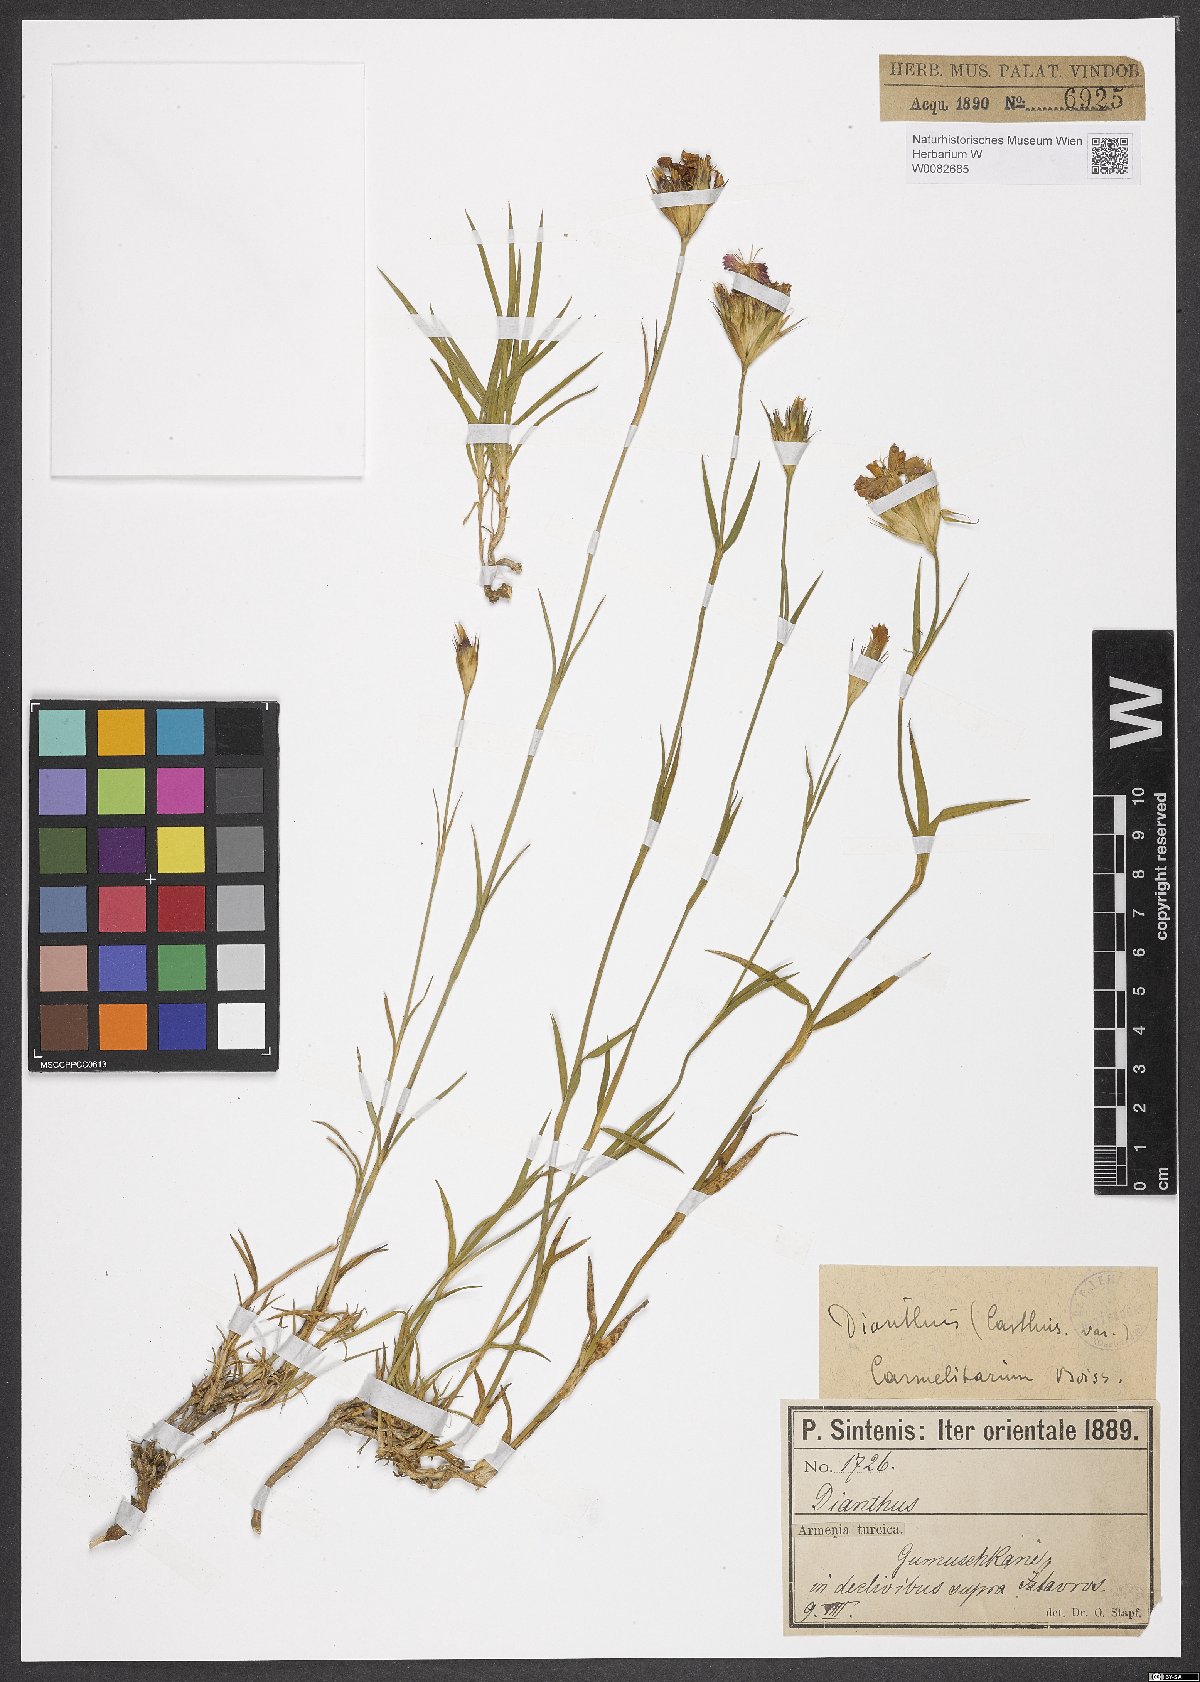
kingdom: Plantae
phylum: Tracheophyta
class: Magnoliopsida
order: Caryophyllales
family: Caryophyllaceae
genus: Dianthus
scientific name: Dianthus carthusianorum
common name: Carthusian pink
